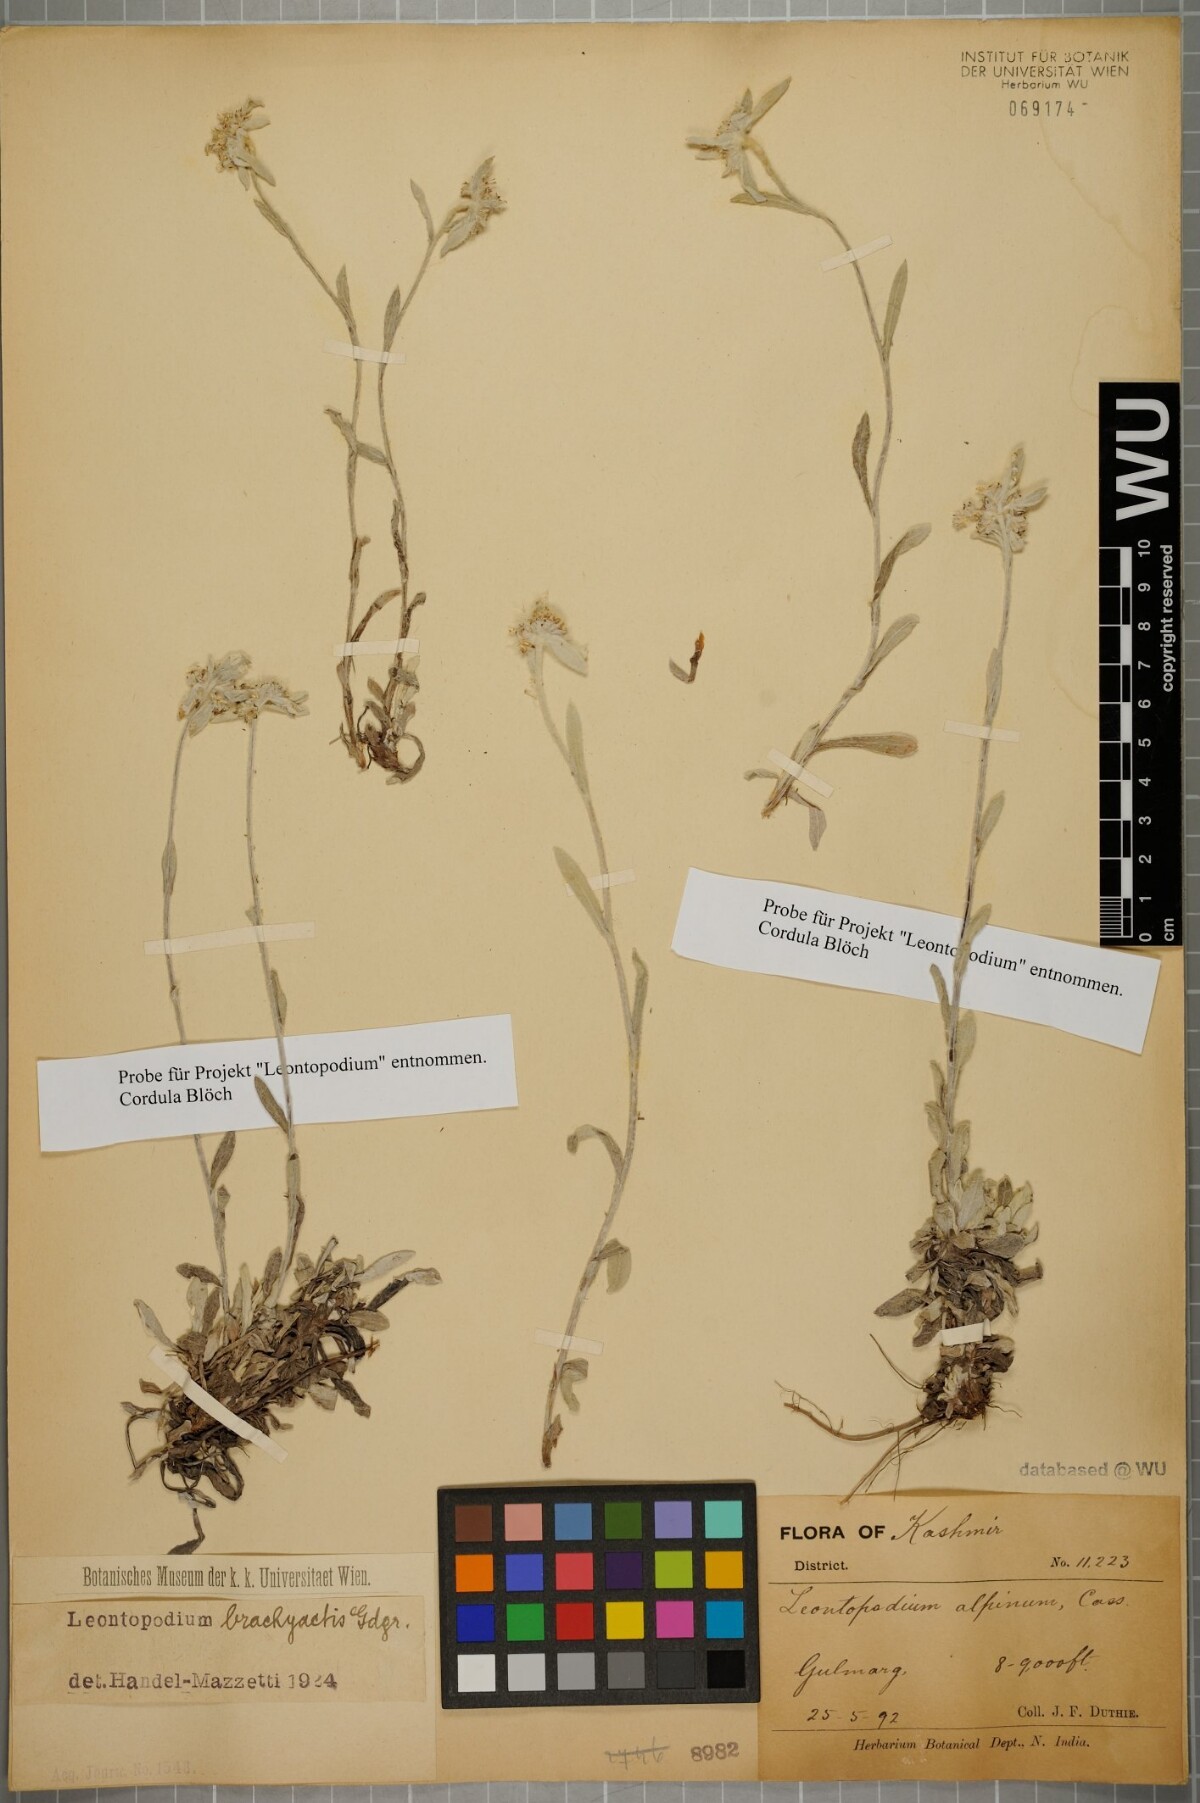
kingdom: Plantae
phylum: Tracheophyta
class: Magnoliopsida
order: Asterales
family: Asteraceae
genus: Leontopodium
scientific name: Leontopodium brachyactis
